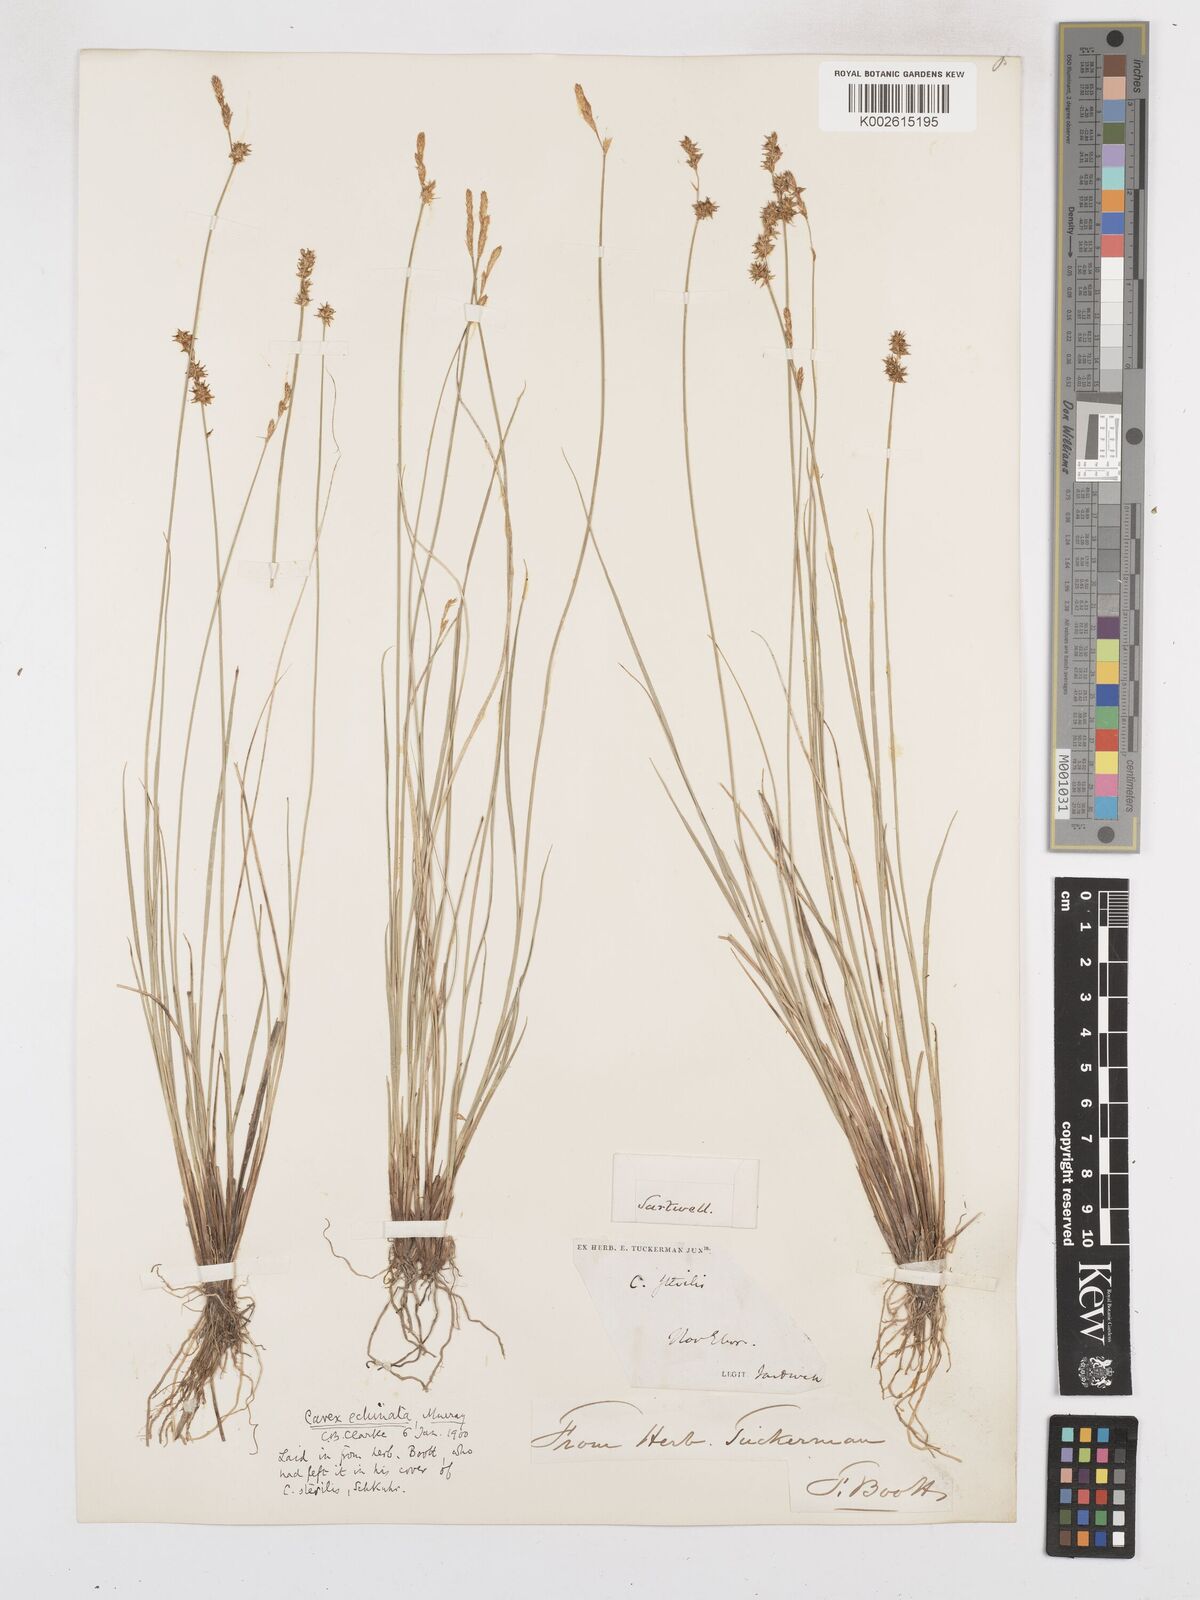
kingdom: Plantae
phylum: Tracheophyta
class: Liliopsida
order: Poales
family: Cyperaceae
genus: Carex
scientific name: Carex echinata
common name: Star sedge
